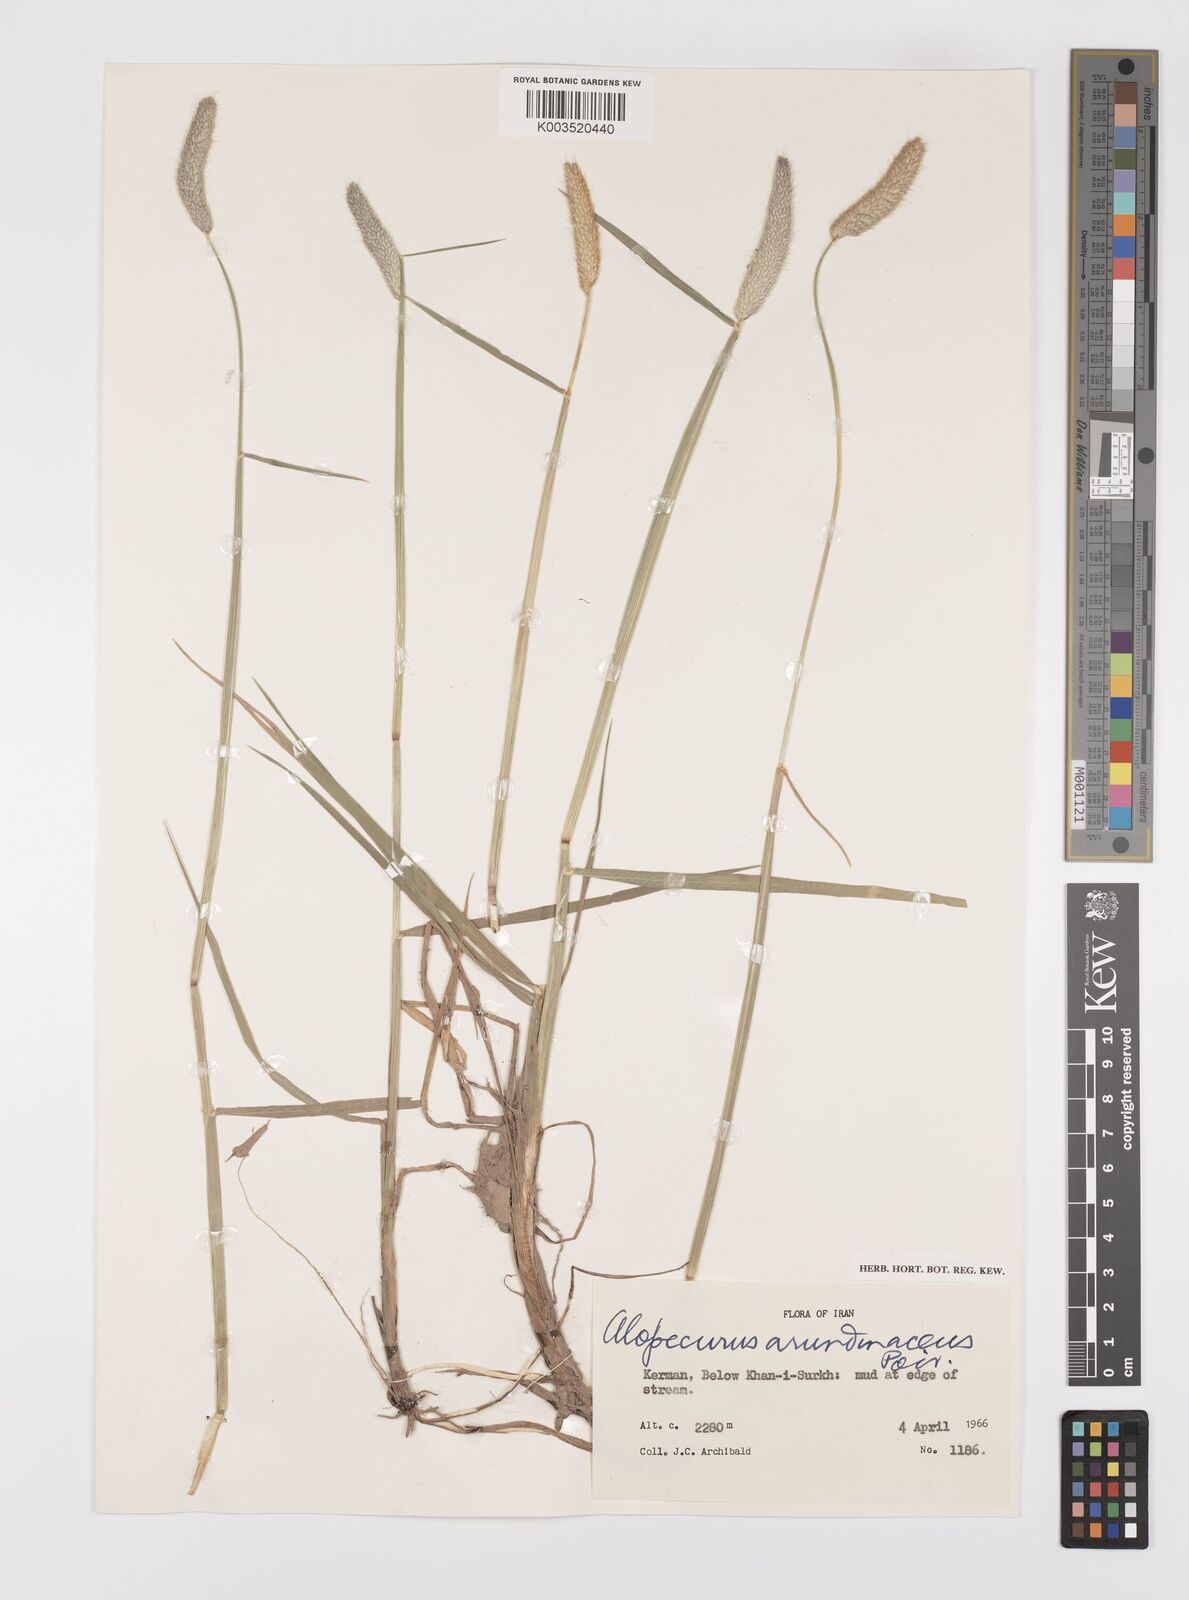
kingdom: Plantae
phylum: Tracheophyta
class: Liliopsida
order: Poales
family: Poaceae
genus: Alopecurus
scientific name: Alopecurus arundinaceus
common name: Creeping meadow foxtail
